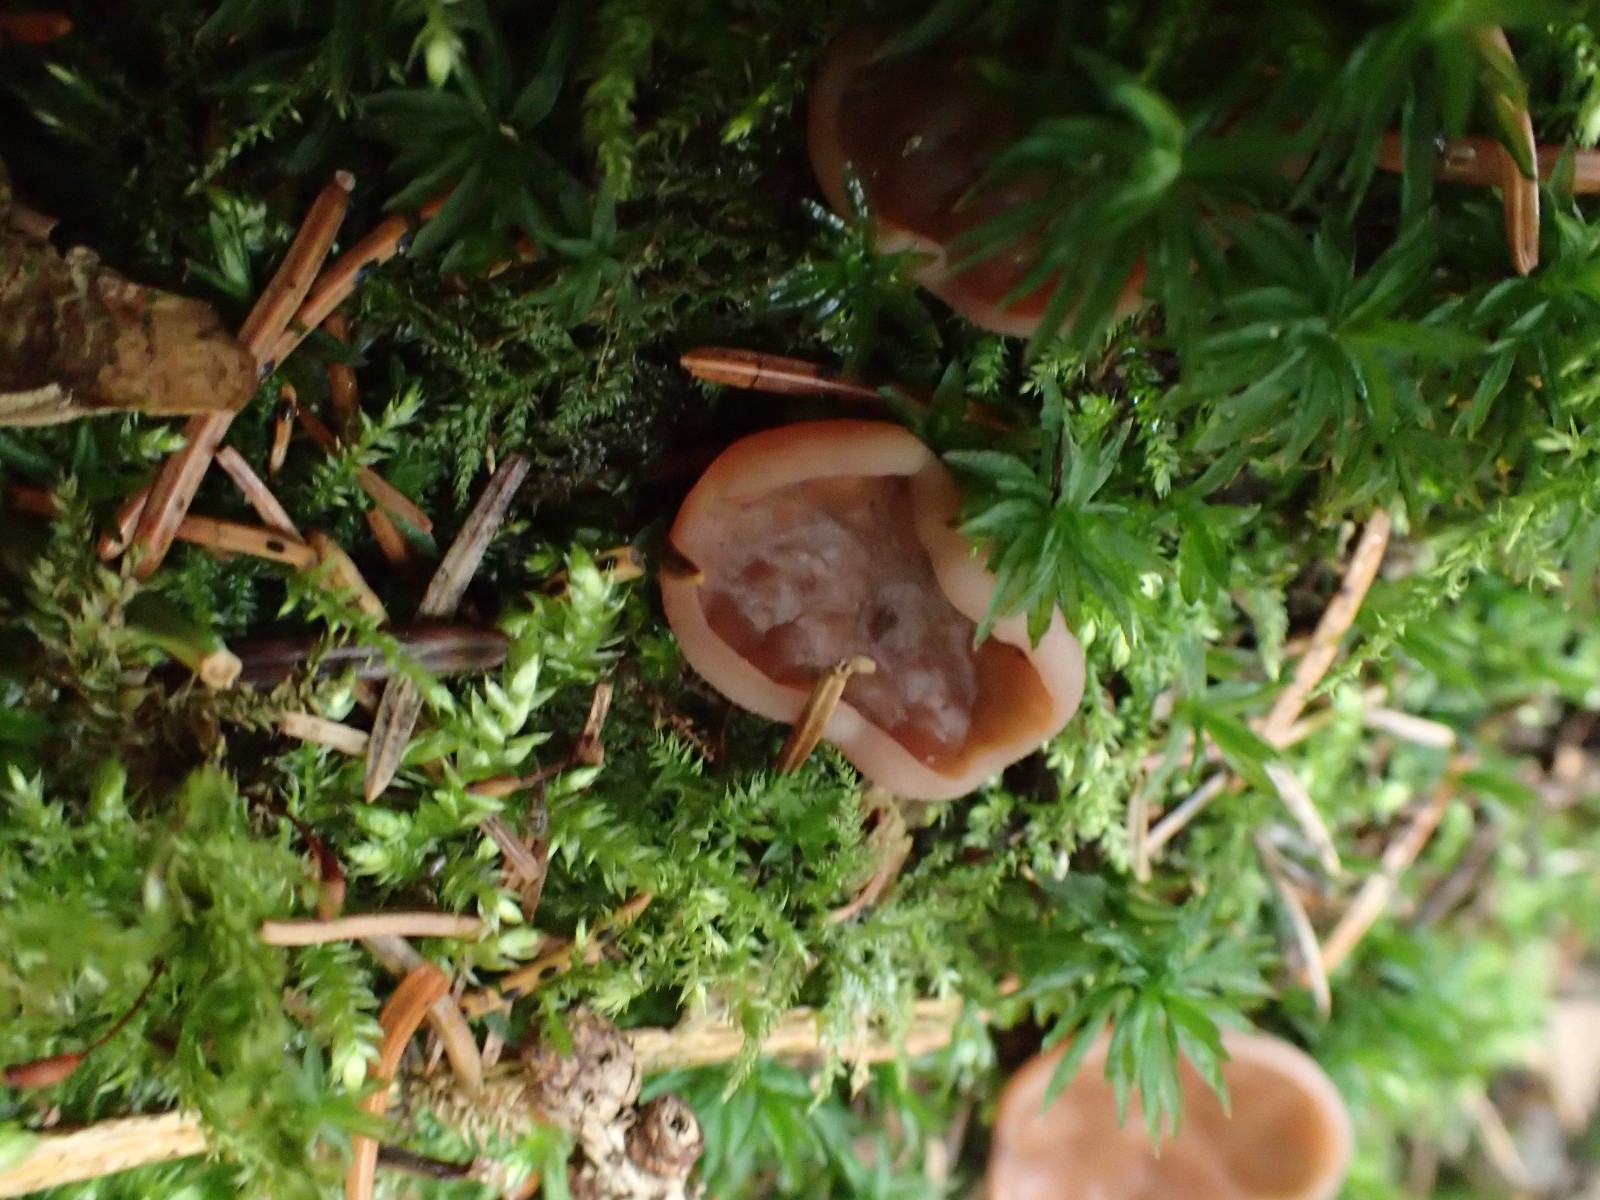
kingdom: Fungi
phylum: Ascomycota
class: Pezizomycetes
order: Pezizales
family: Discinaceae
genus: Discina
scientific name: Discina ancilis
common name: udbredt stenmorkel
